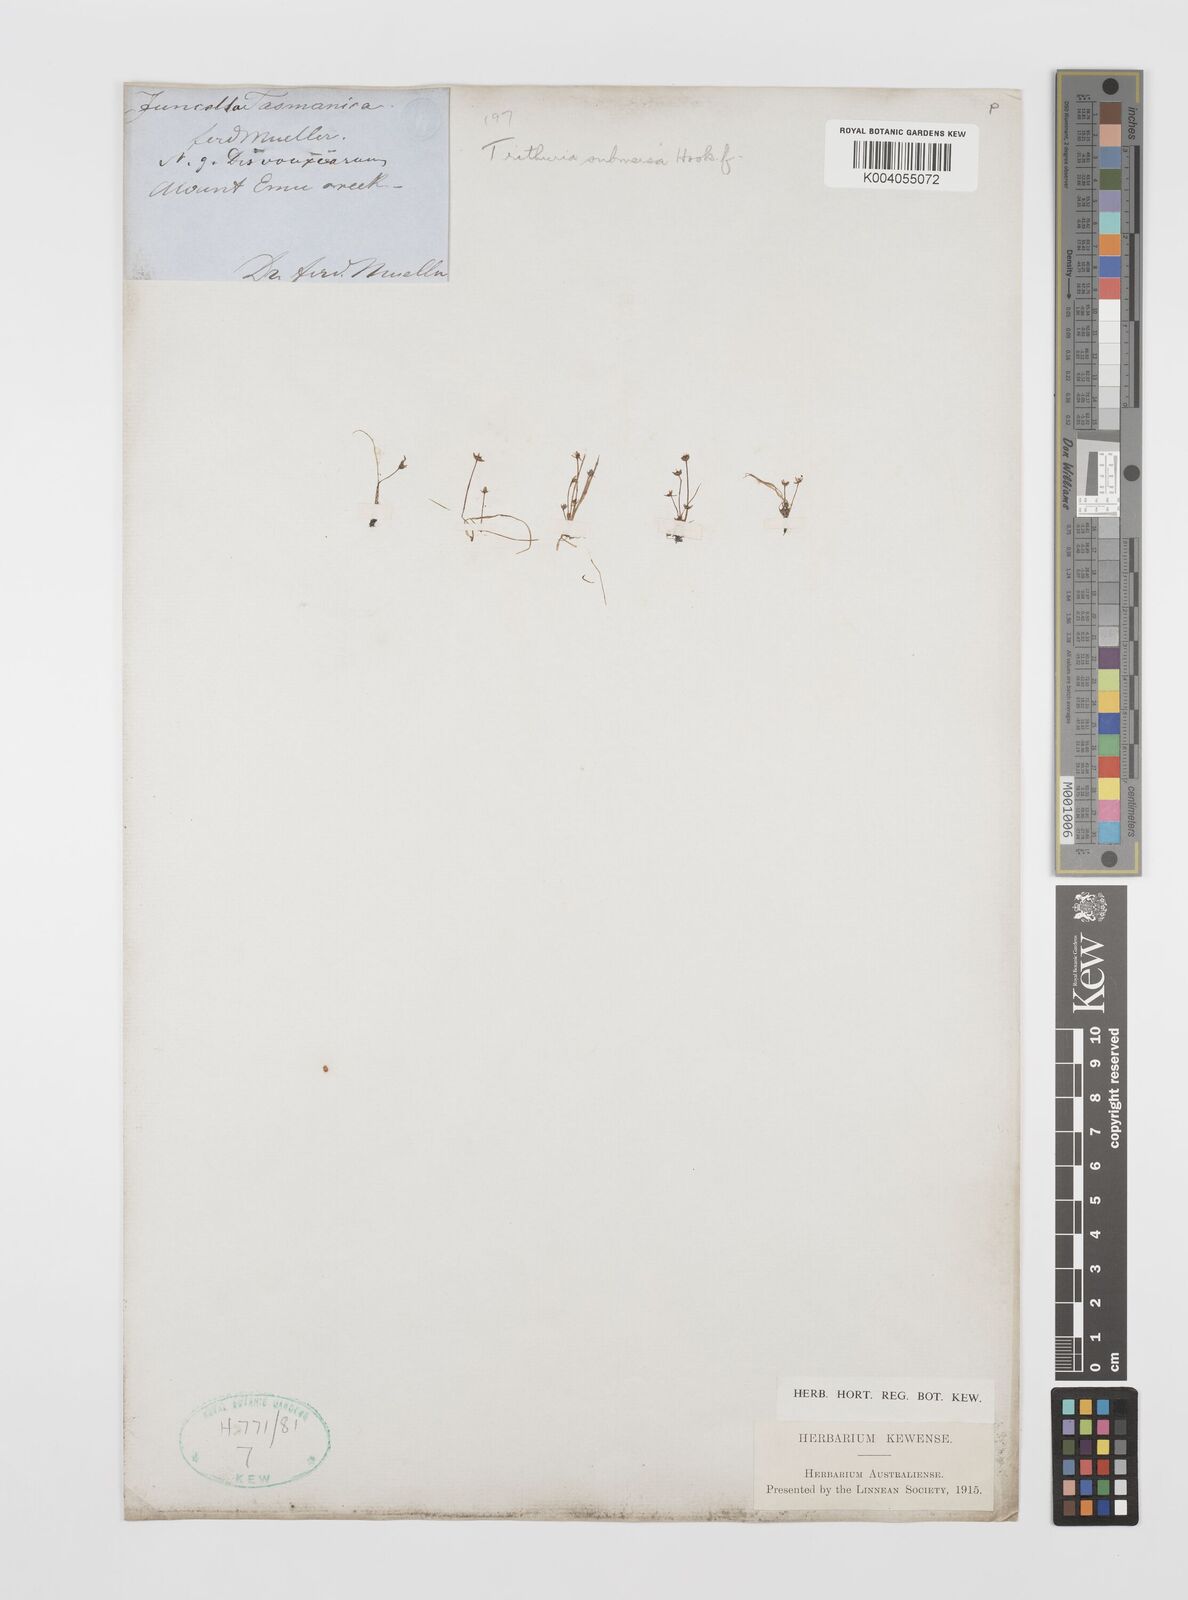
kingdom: Plantae
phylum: Tracheophyta
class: Magnoliopsida
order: Nymphaeales
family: Hydatellaceae
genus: Trithuria
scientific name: Trithuria submersa
